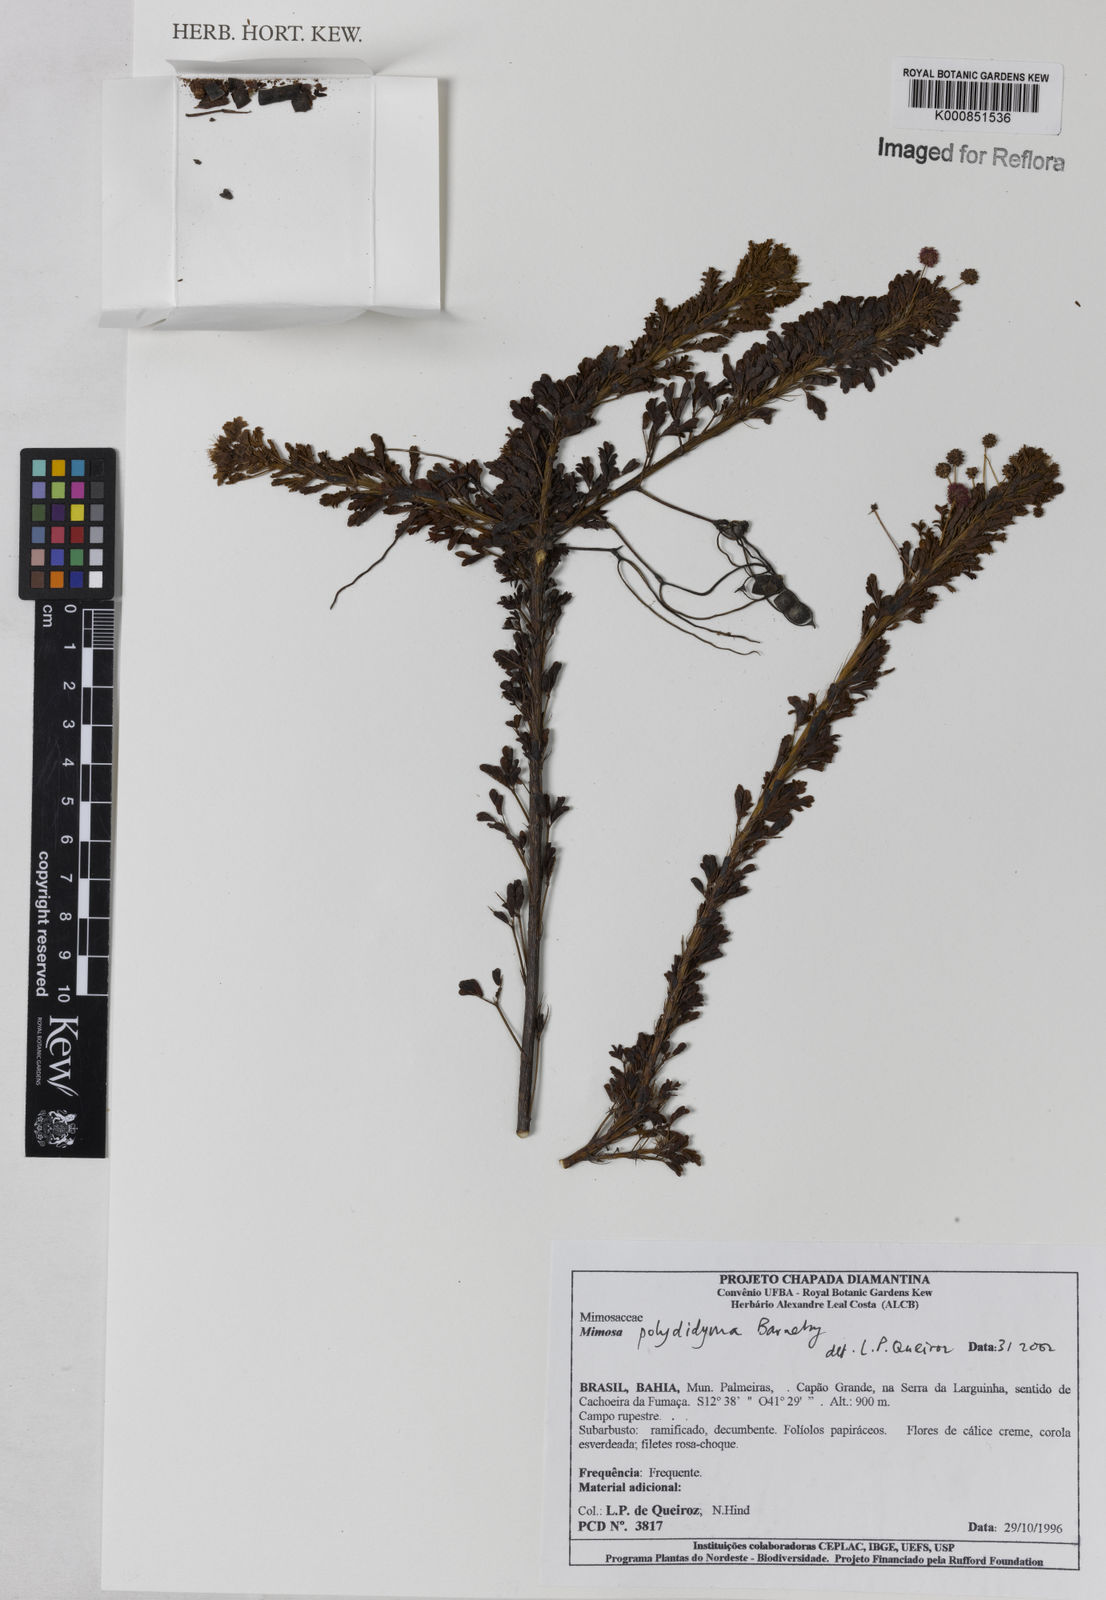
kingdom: Plantae
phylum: Tracheophyta
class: Magnoliopsida
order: Fabales
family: Fabaceae
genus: Mimosa
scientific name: Mimosa polydidyma
